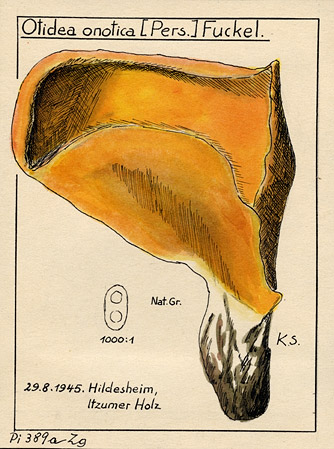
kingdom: Fungi
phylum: Ascomycota
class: Pezizomycetes
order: Pezizales
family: Otideaceae
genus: Otidea
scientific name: Otidea onotica
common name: Hare's ear
